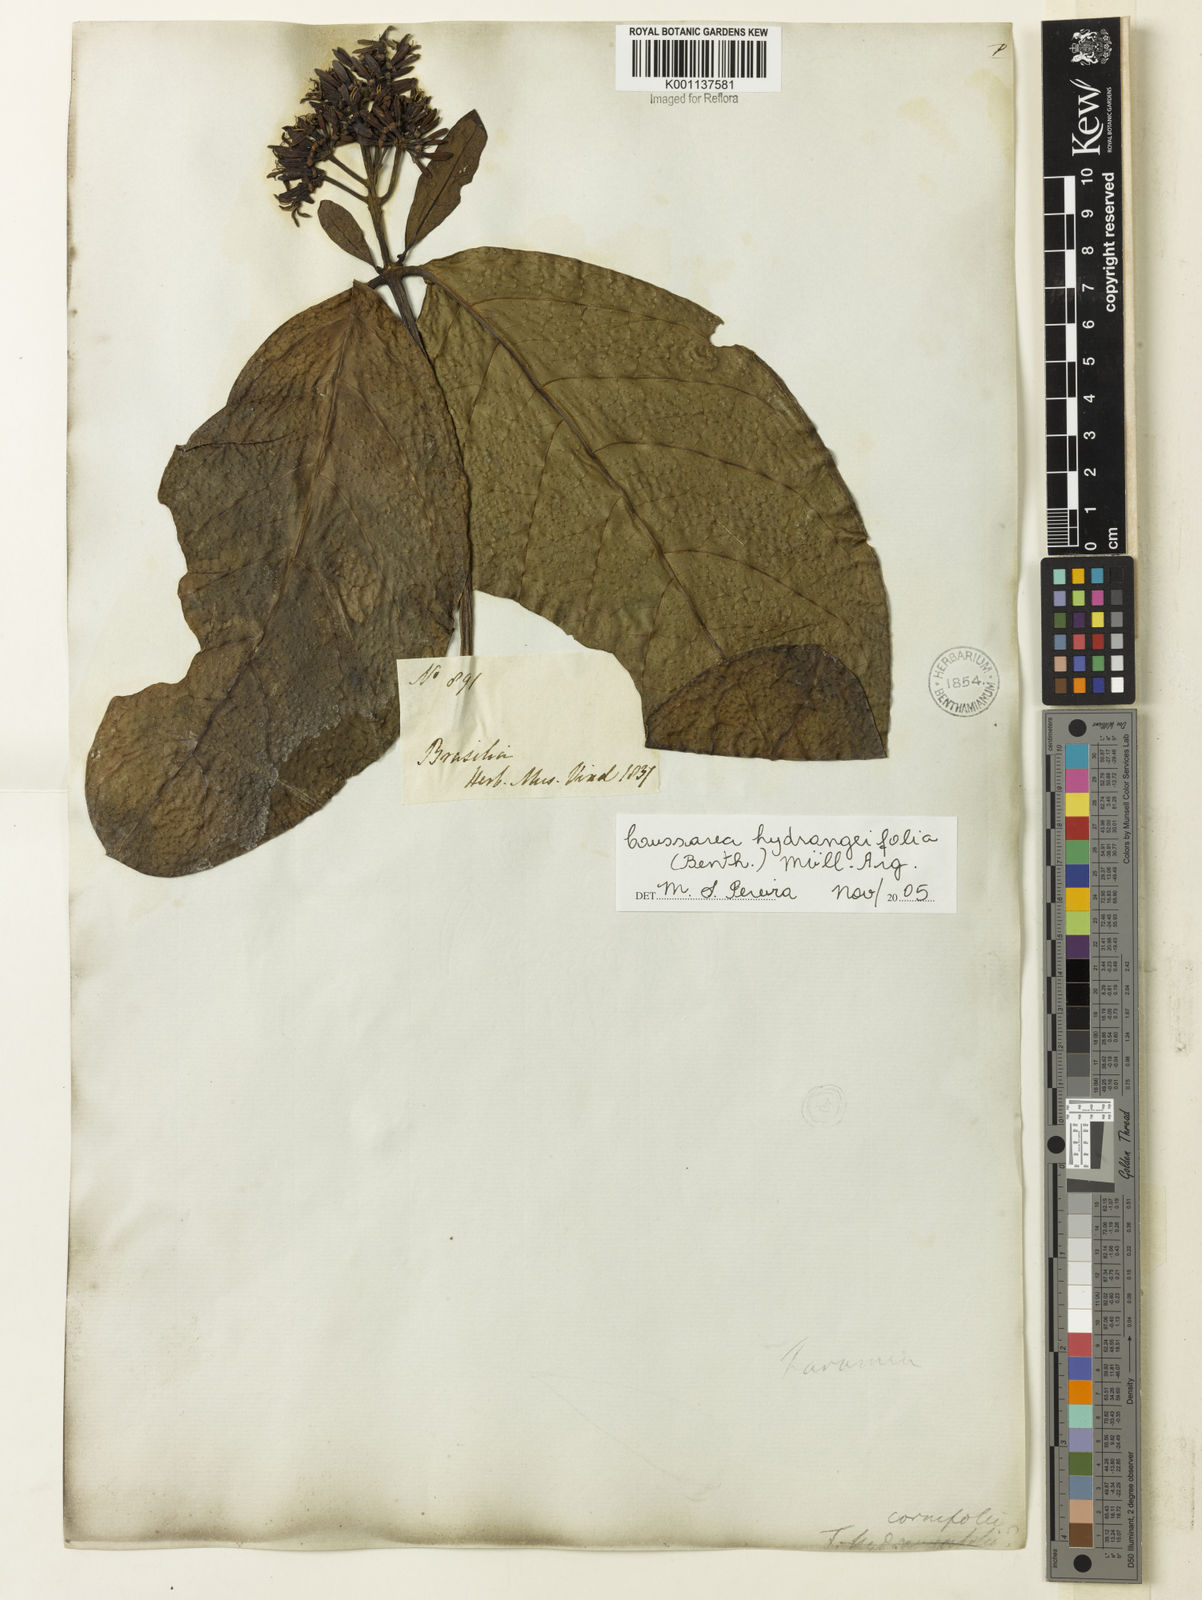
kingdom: Plantae
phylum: Tracheophyta
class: Magnoliopsida
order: Gentianales
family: Rubiaceae
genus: Coussarea
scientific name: Coussarea
